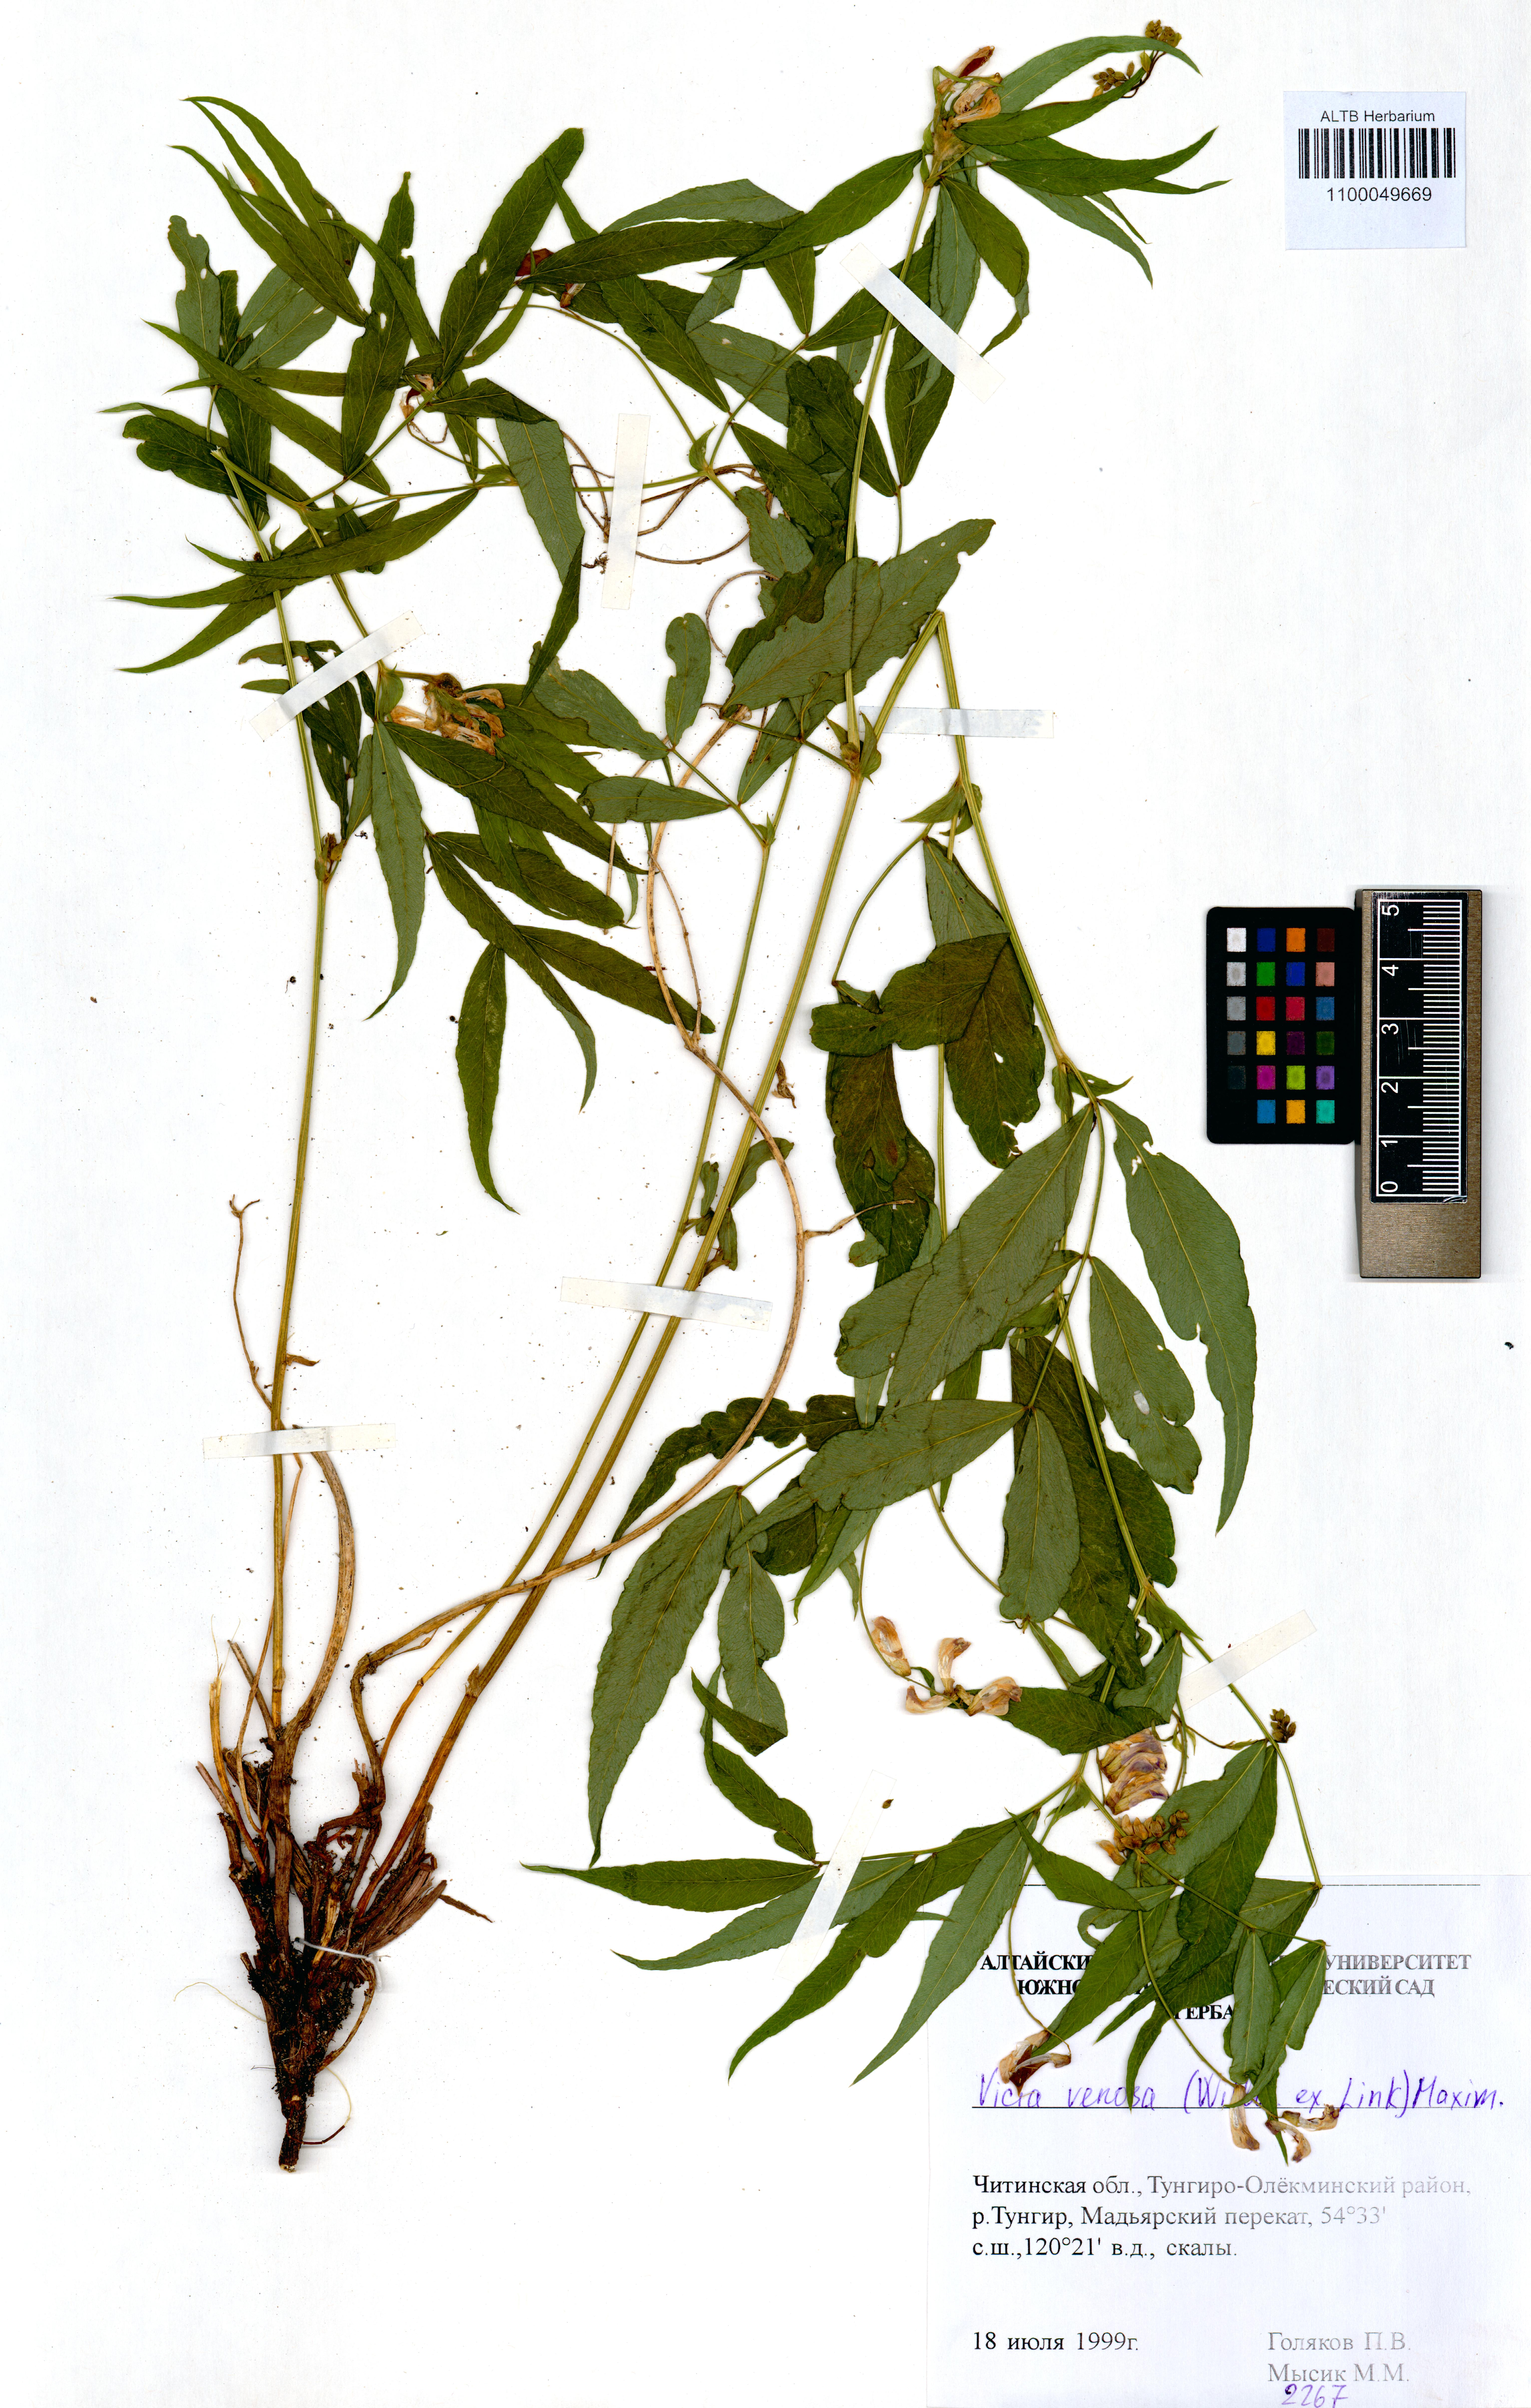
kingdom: Plantae
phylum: Tracheophyta
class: Magnoliopsida
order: Fabales
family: Fabaceae
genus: Vicia
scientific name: Vicia venosa
